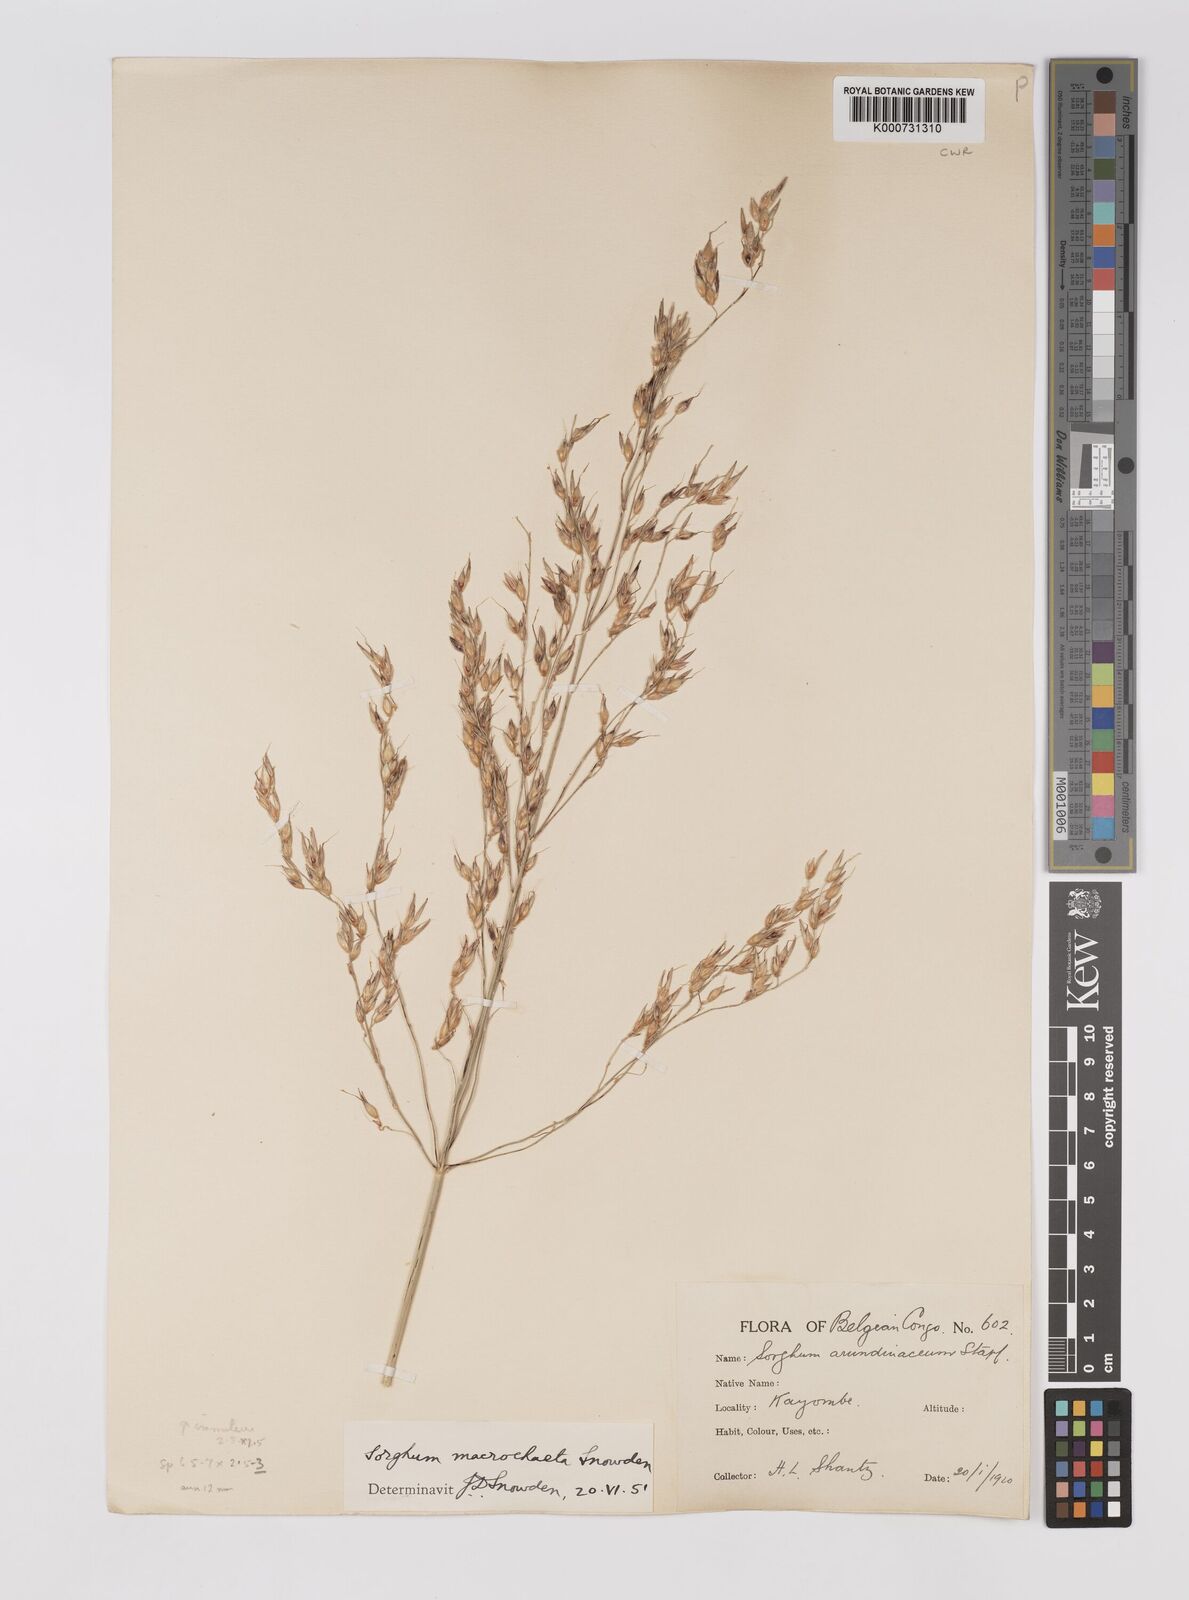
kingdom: Plantae
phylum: Tracheophyta
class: Liliopsida
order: Poales
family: Poaceae
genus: Sorghum
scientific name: Sorghum arundinaceum
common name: Sorghum
